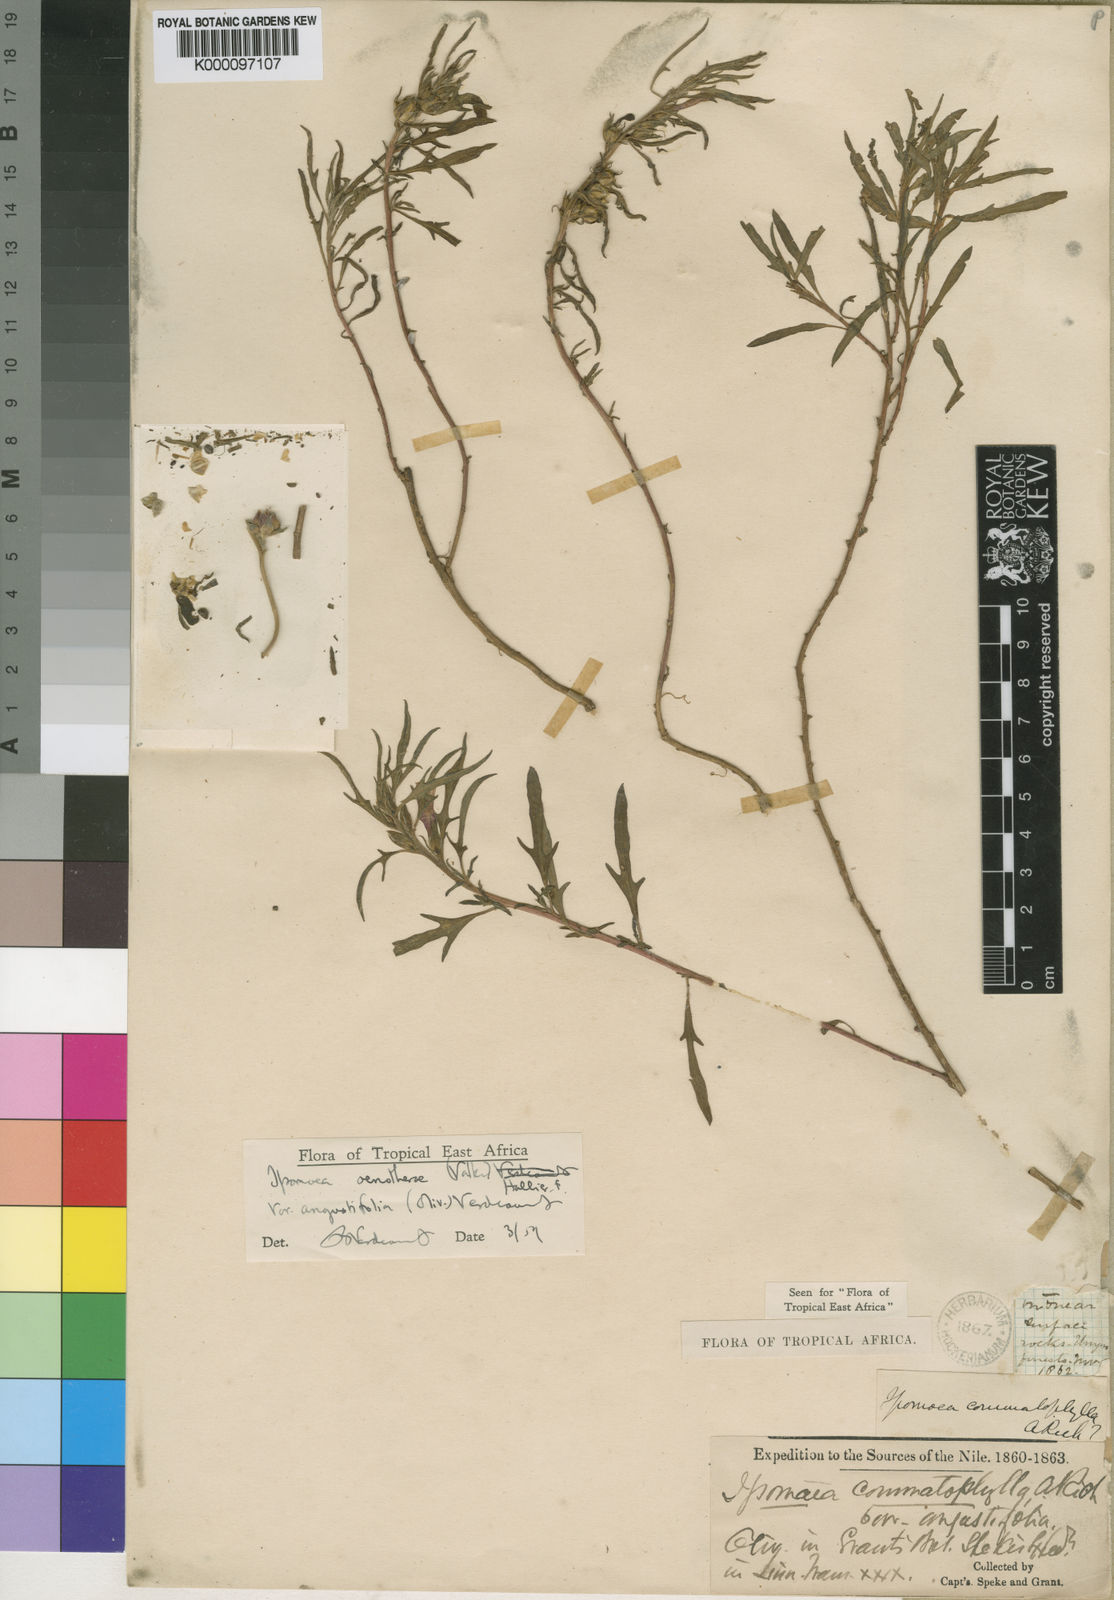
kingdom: Plantae
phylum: Tracheophyta
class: Magnoliopsida
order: Solanales
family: Convolvulaceae
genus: Ipomoea
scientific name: Ipomoea oenotherae
